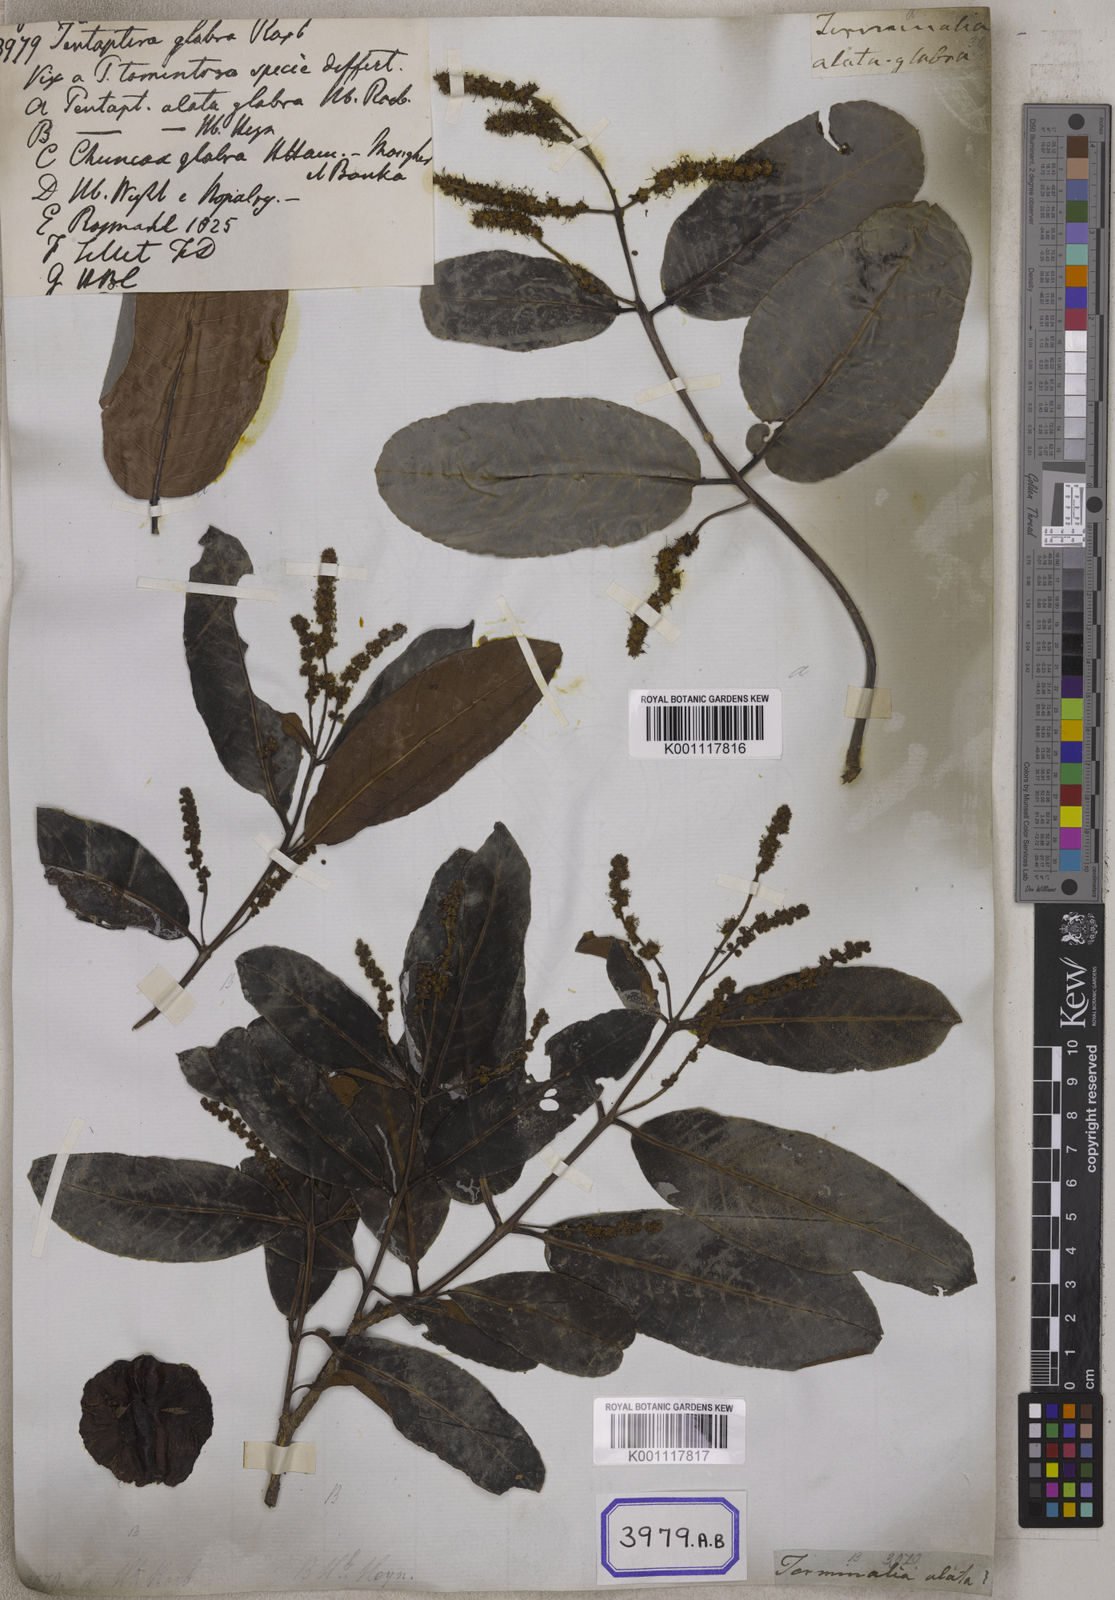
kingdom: Plantae
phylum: Tracheophyta
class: Magnoliopsida
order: Myrtales
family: Combretaceae
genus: Terminalia
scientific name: Terminalia arjuna
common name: Arjun
